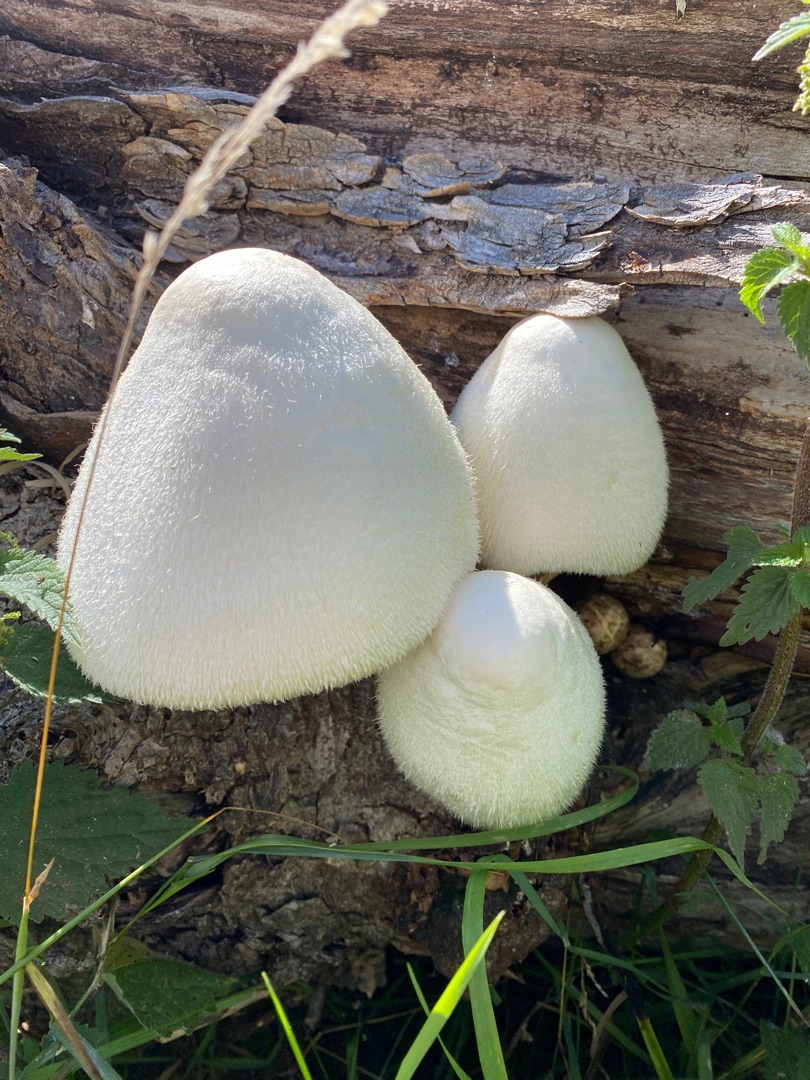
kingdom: Fungi
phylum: Basidiomycota
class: Agaricomycetes
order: Agaricales
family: Pluteaceae
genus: Volvariella
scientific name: Volvariella bombycina
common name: Silkehåret posesvamp
